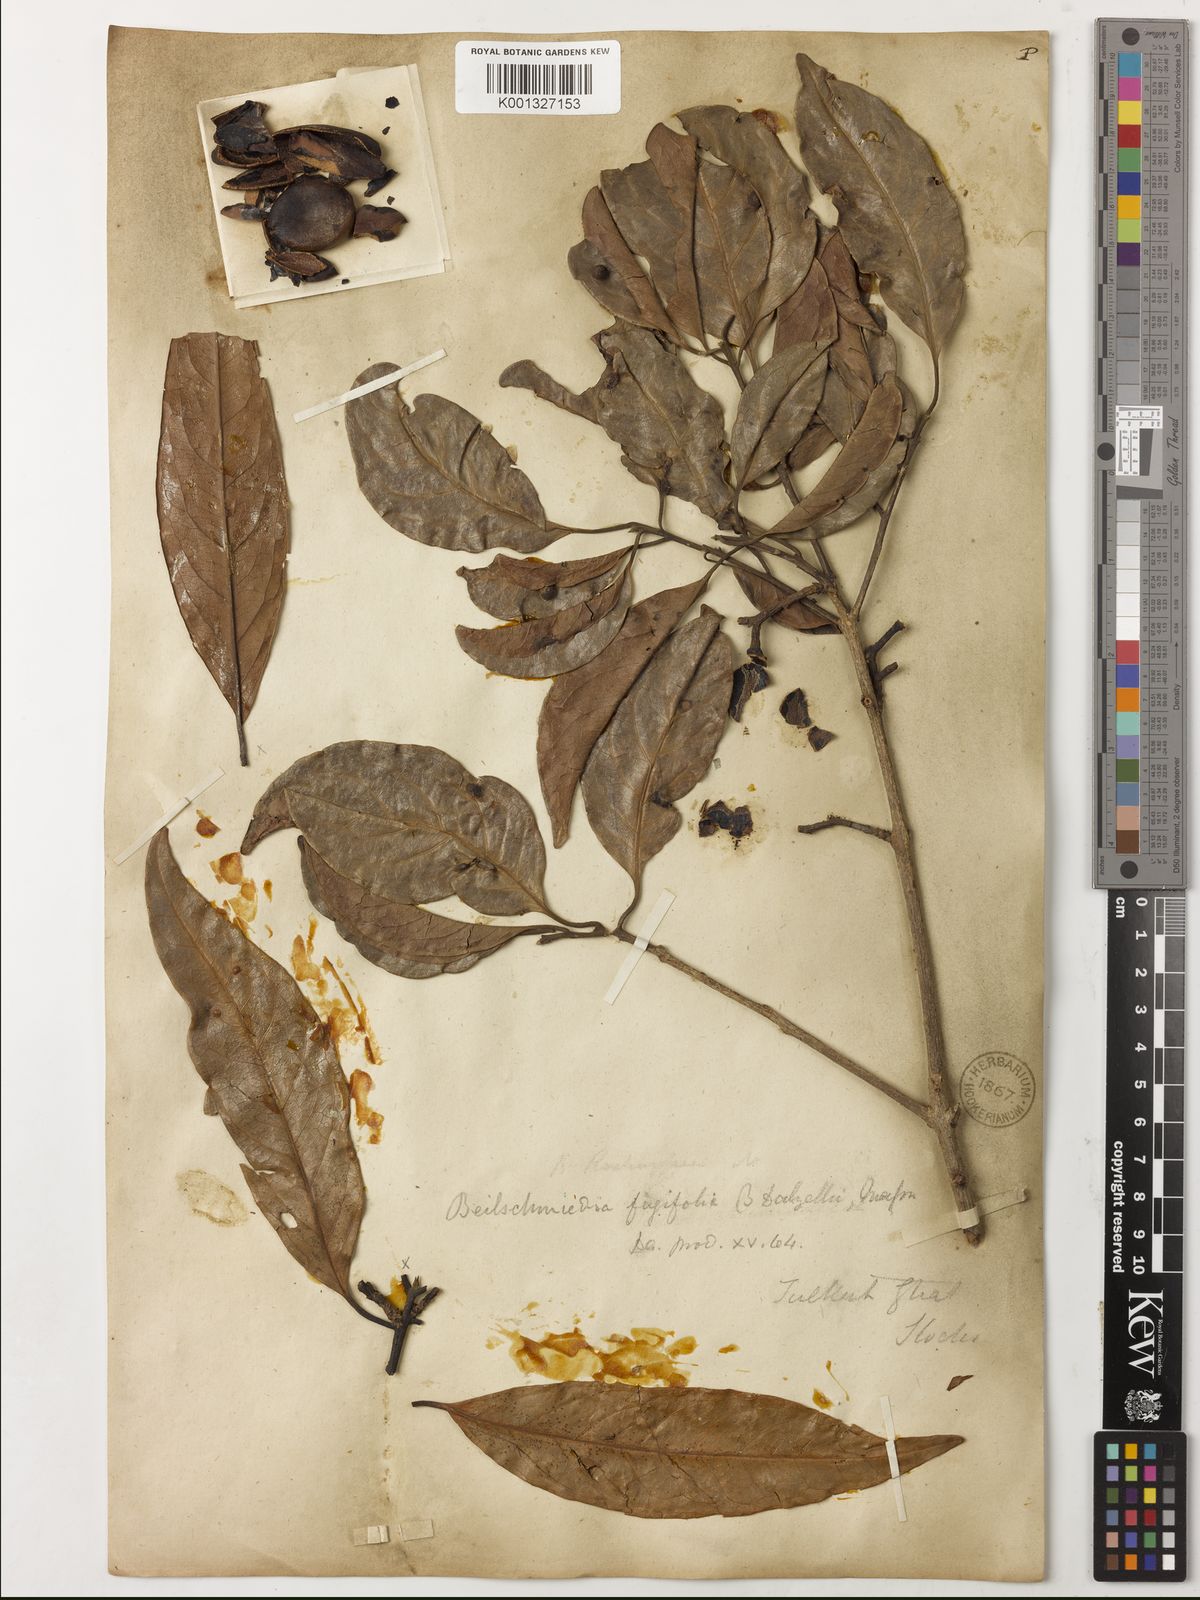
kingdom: Plantae
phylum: Tracheophyta
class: Magnoliopsida
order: Laurales
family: Lauraceae
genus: Beilschmiedia
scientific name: Beilschmiedia dalzellii
